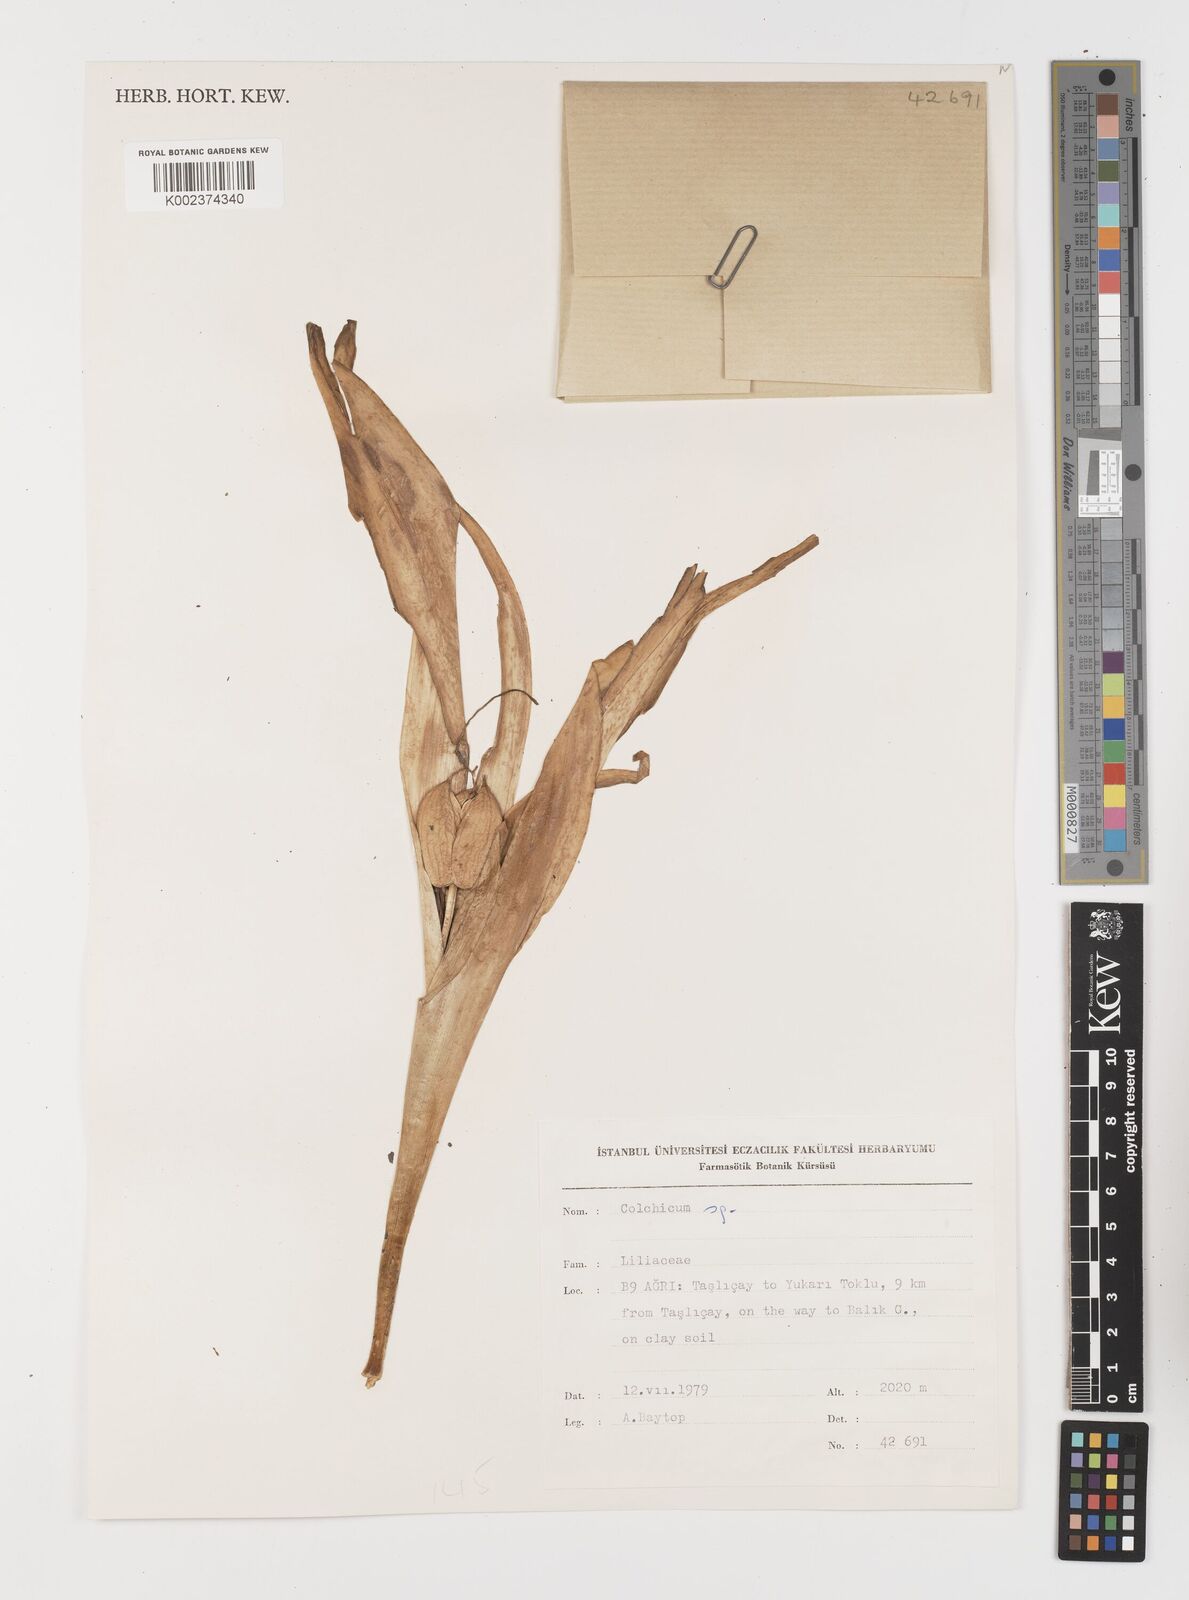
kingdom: Plantae
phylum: Tracheophyta
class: Liliopsida
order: Liliales
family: Colchicaceae
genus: Colchicum
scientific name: Colchicum
